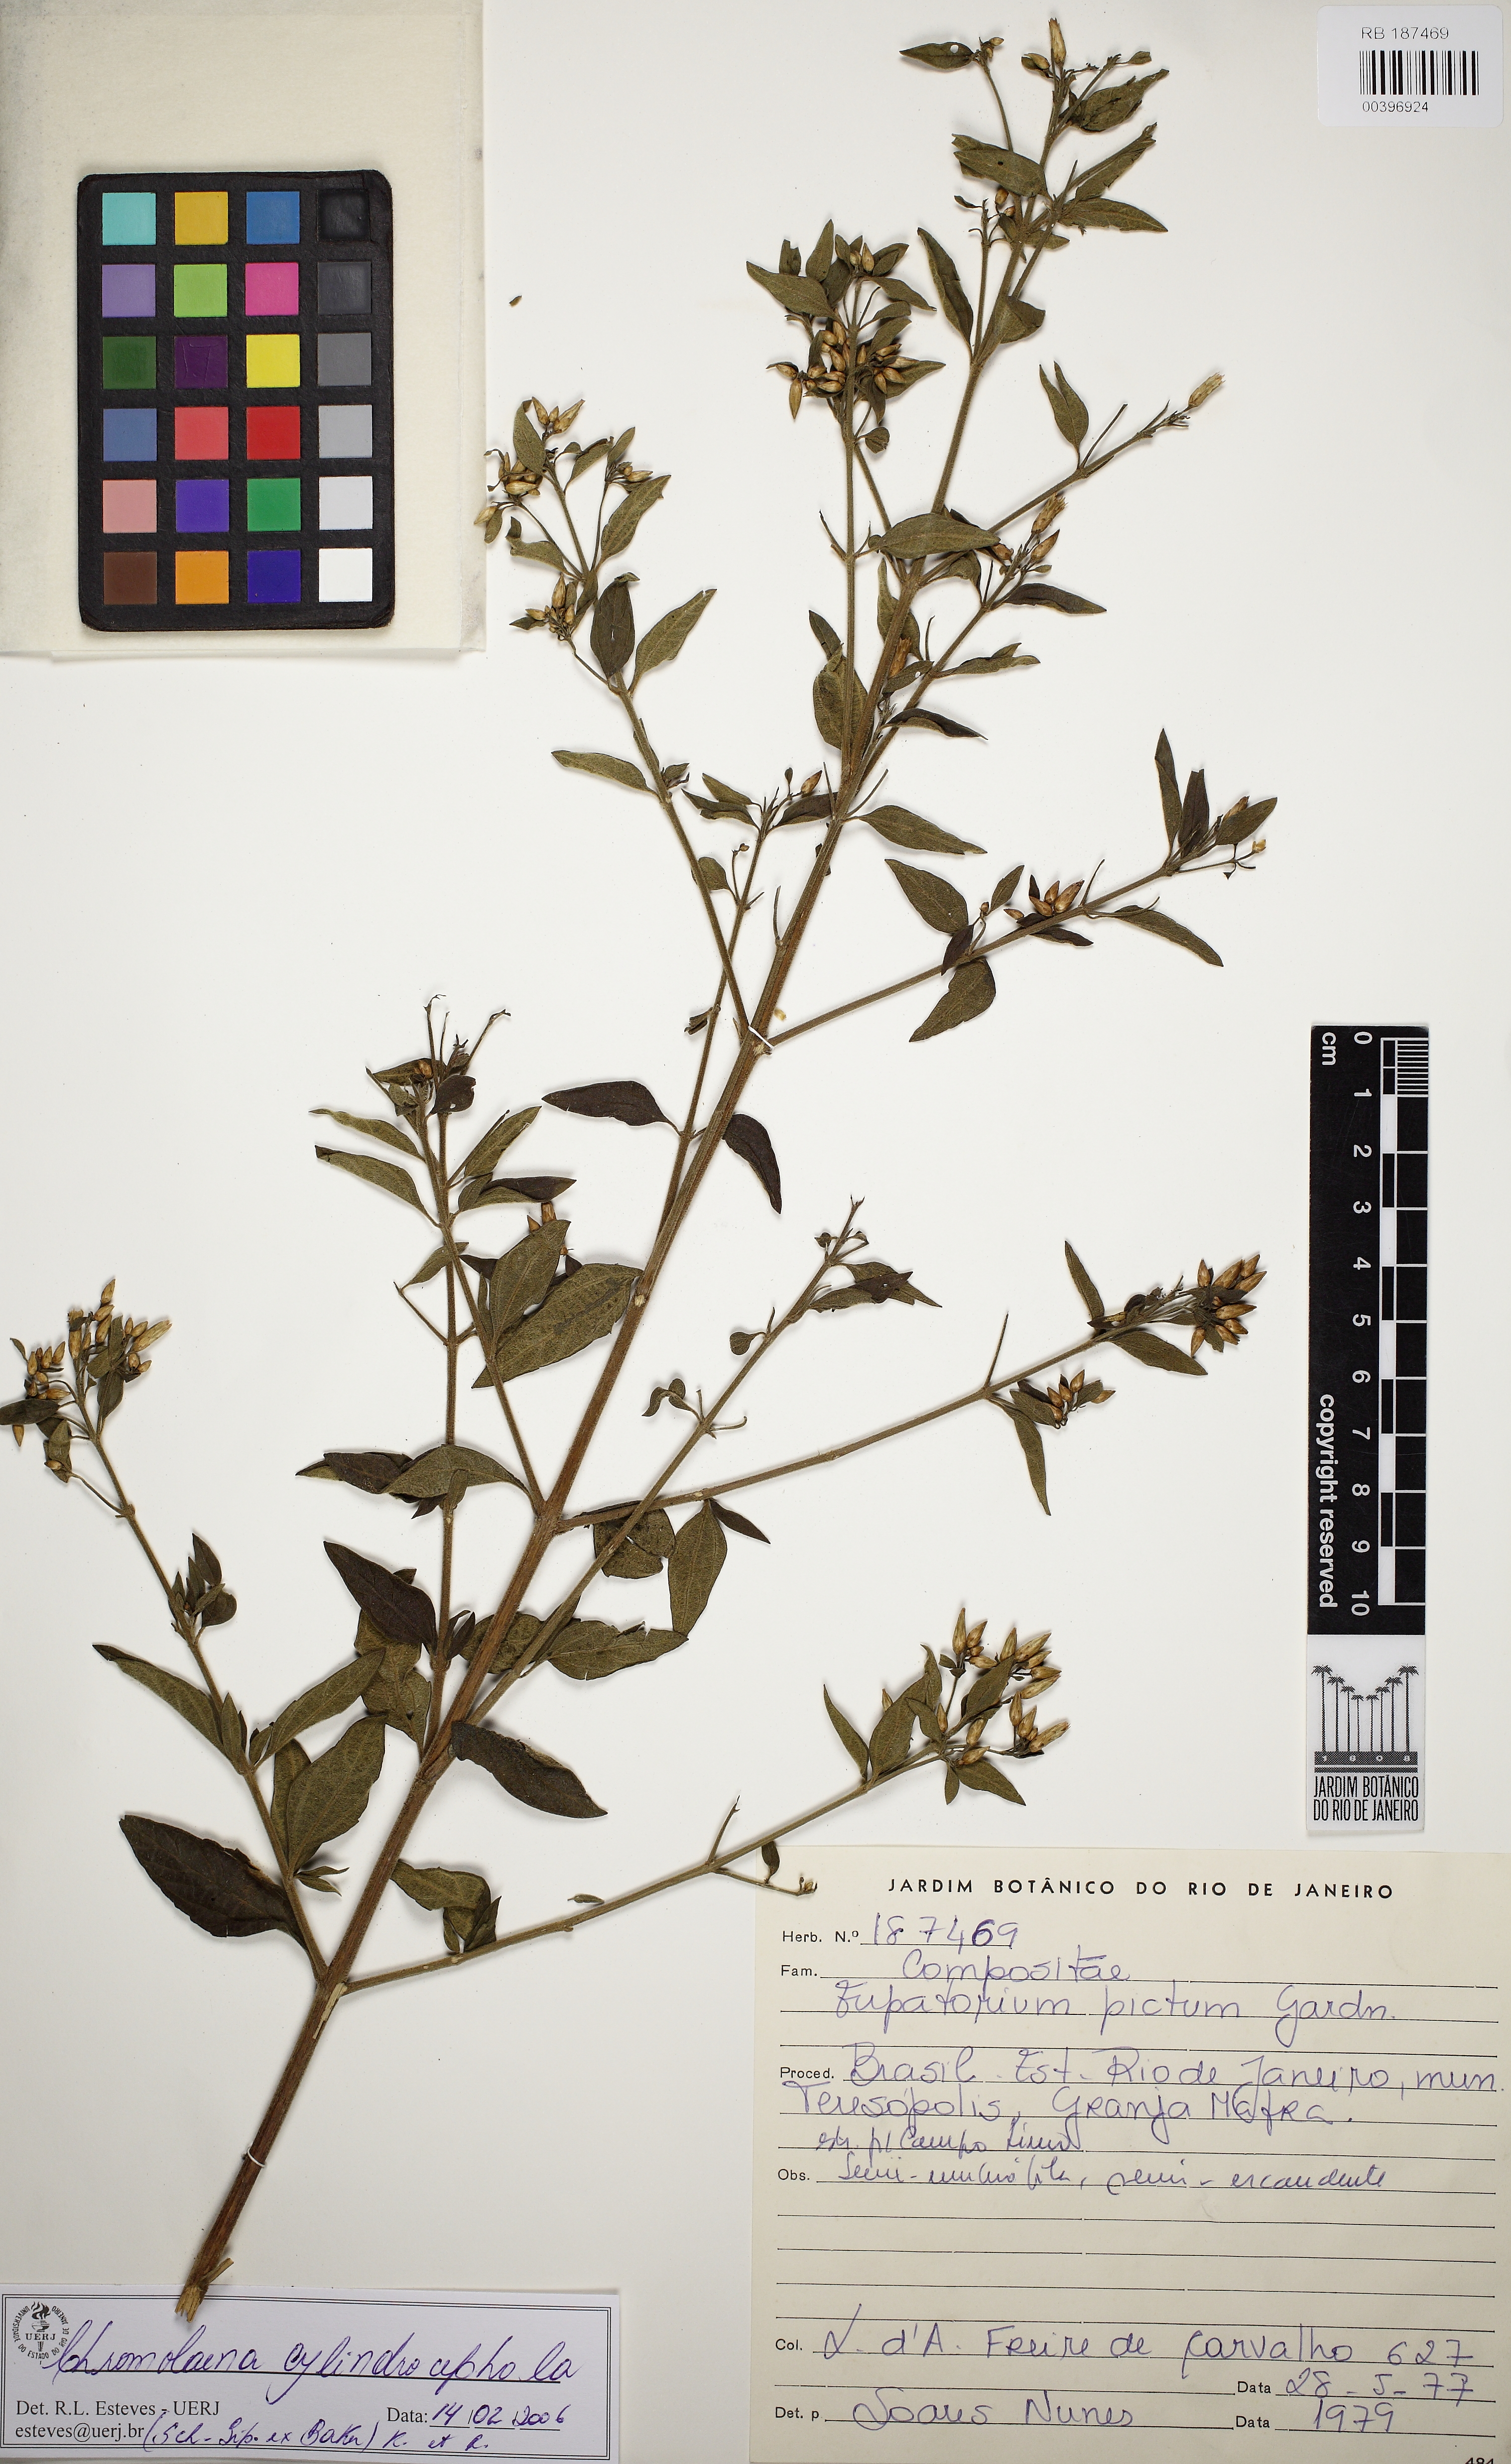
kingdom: Plantae
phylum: Tracheophyta
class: Magnoliopsida
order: Asterales
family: Asteraceae
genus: Chromolaena
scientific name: Chromolaena cylindrocephala
